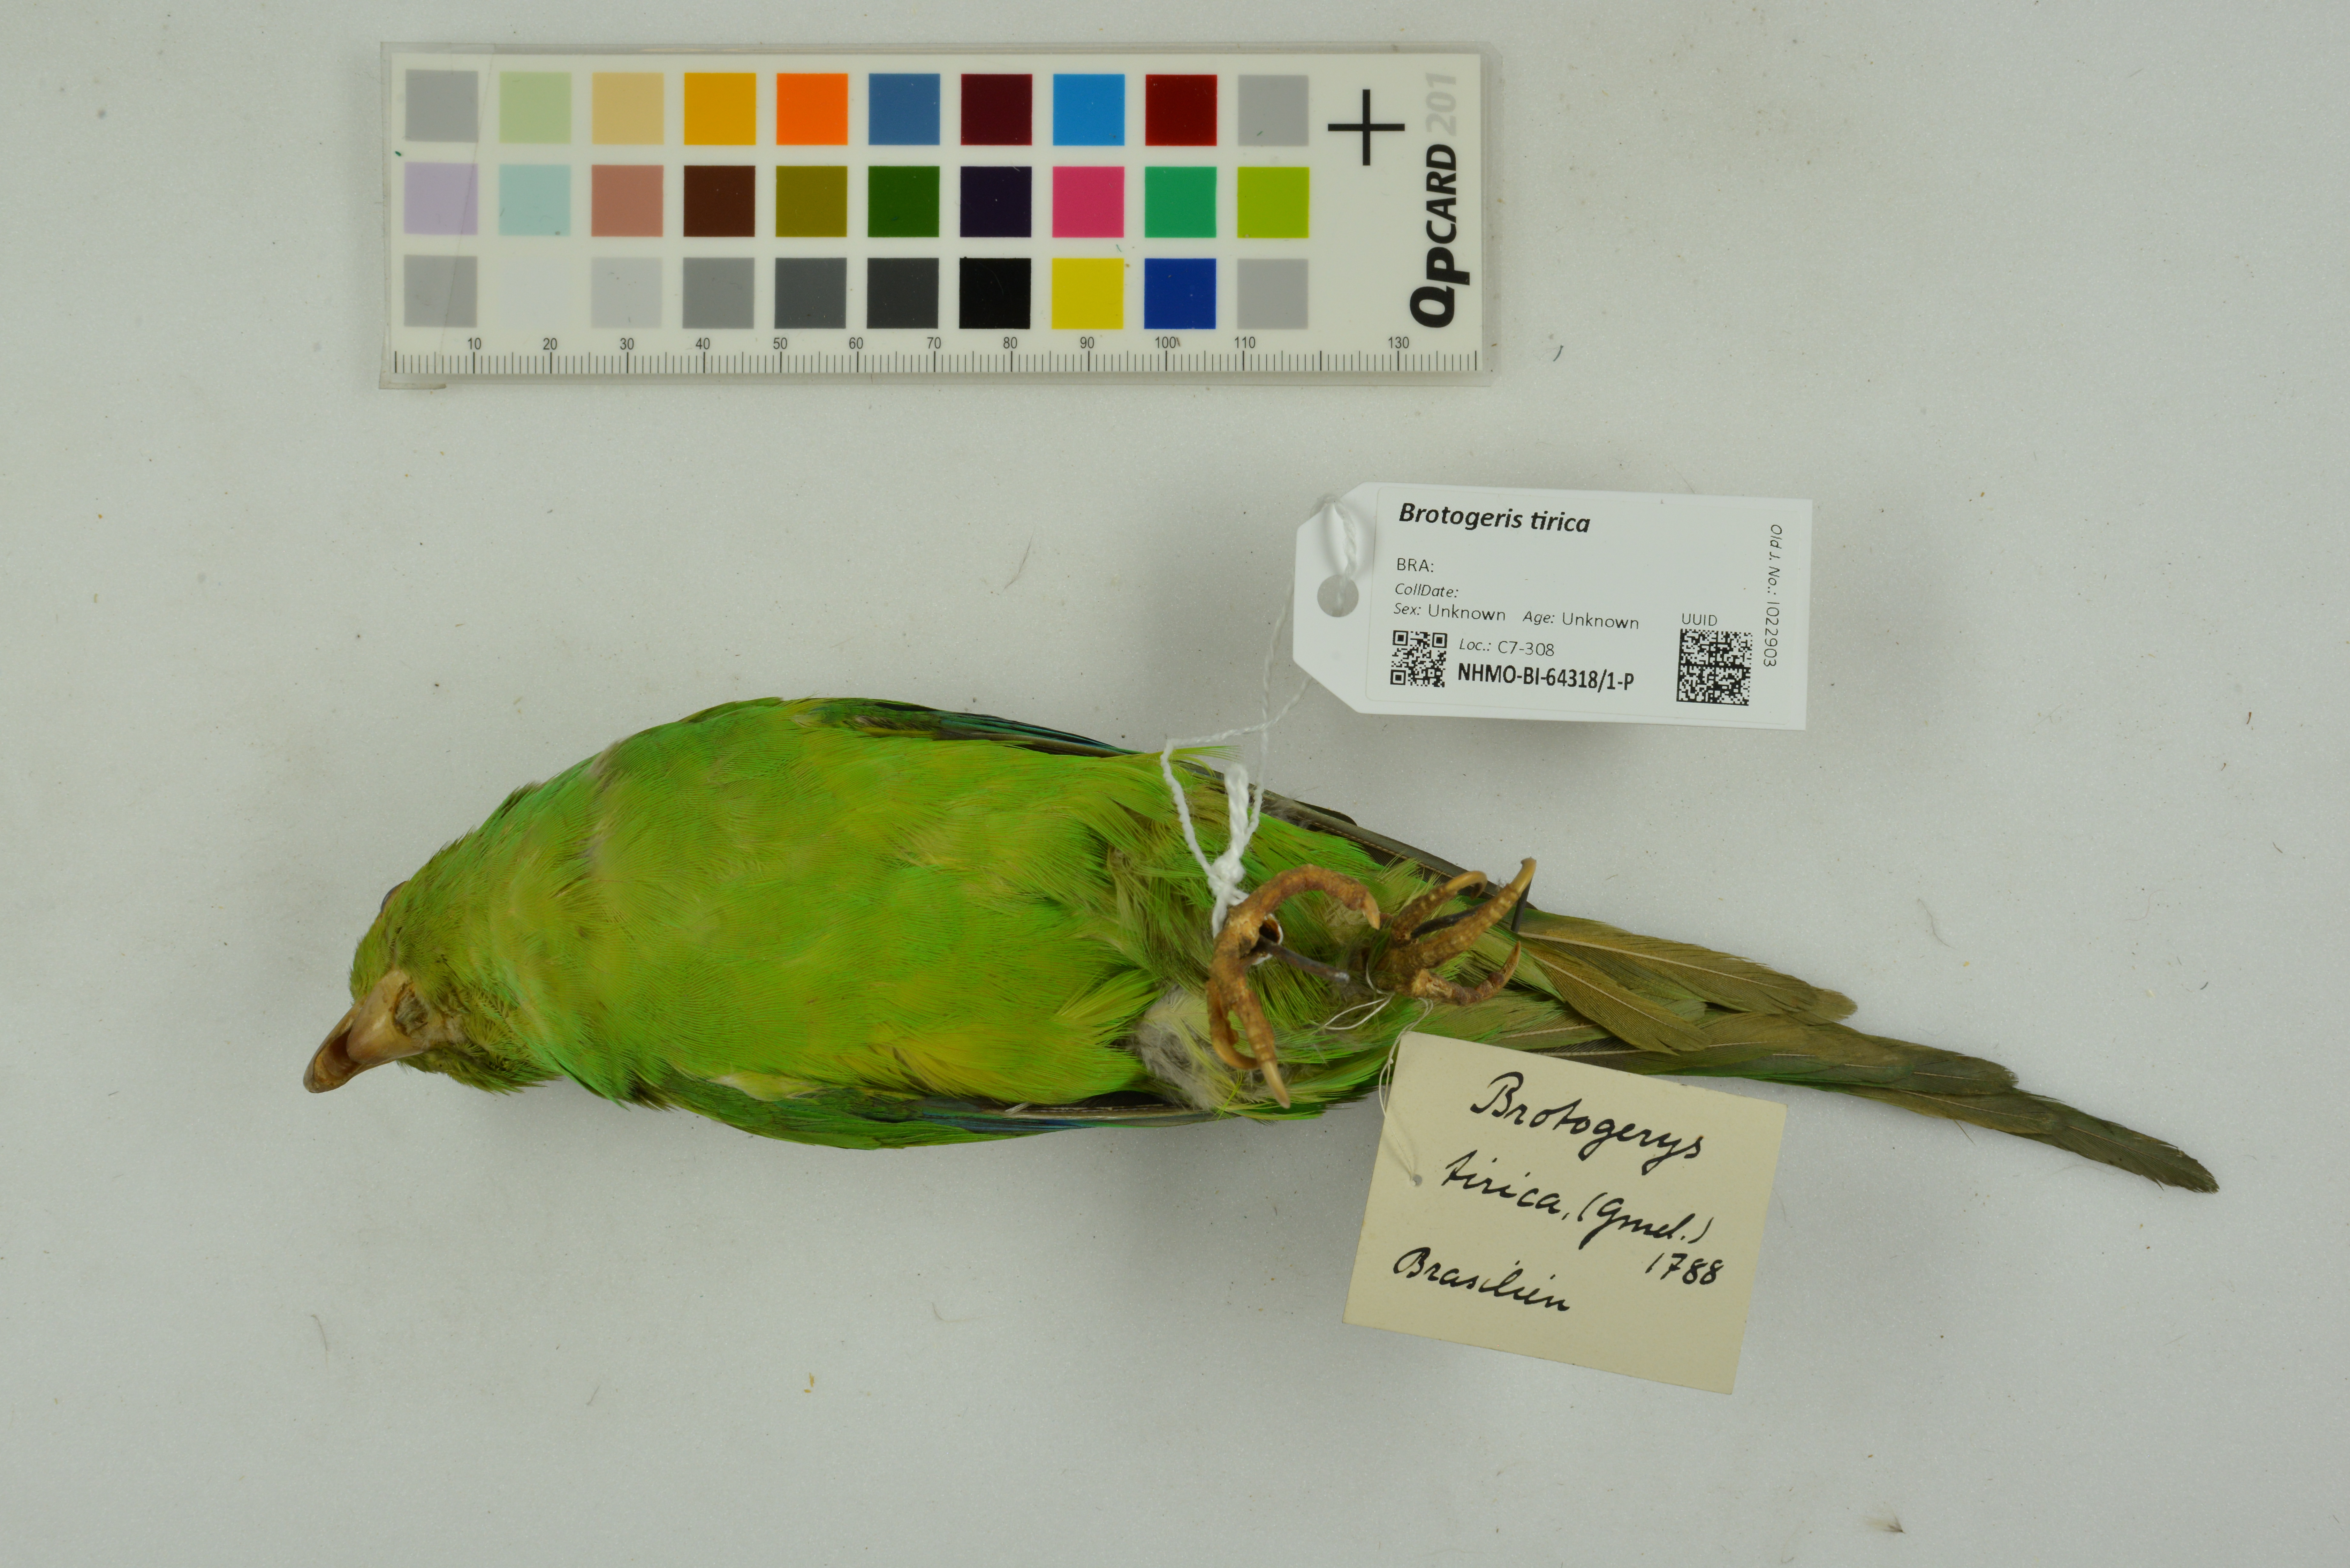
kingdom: Animalia
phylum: Chordata
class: Aves
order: Psittaciformes
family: Psittacidae
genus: Brotogeris
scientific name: Brotogeris tirica
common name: Plain parakeet
